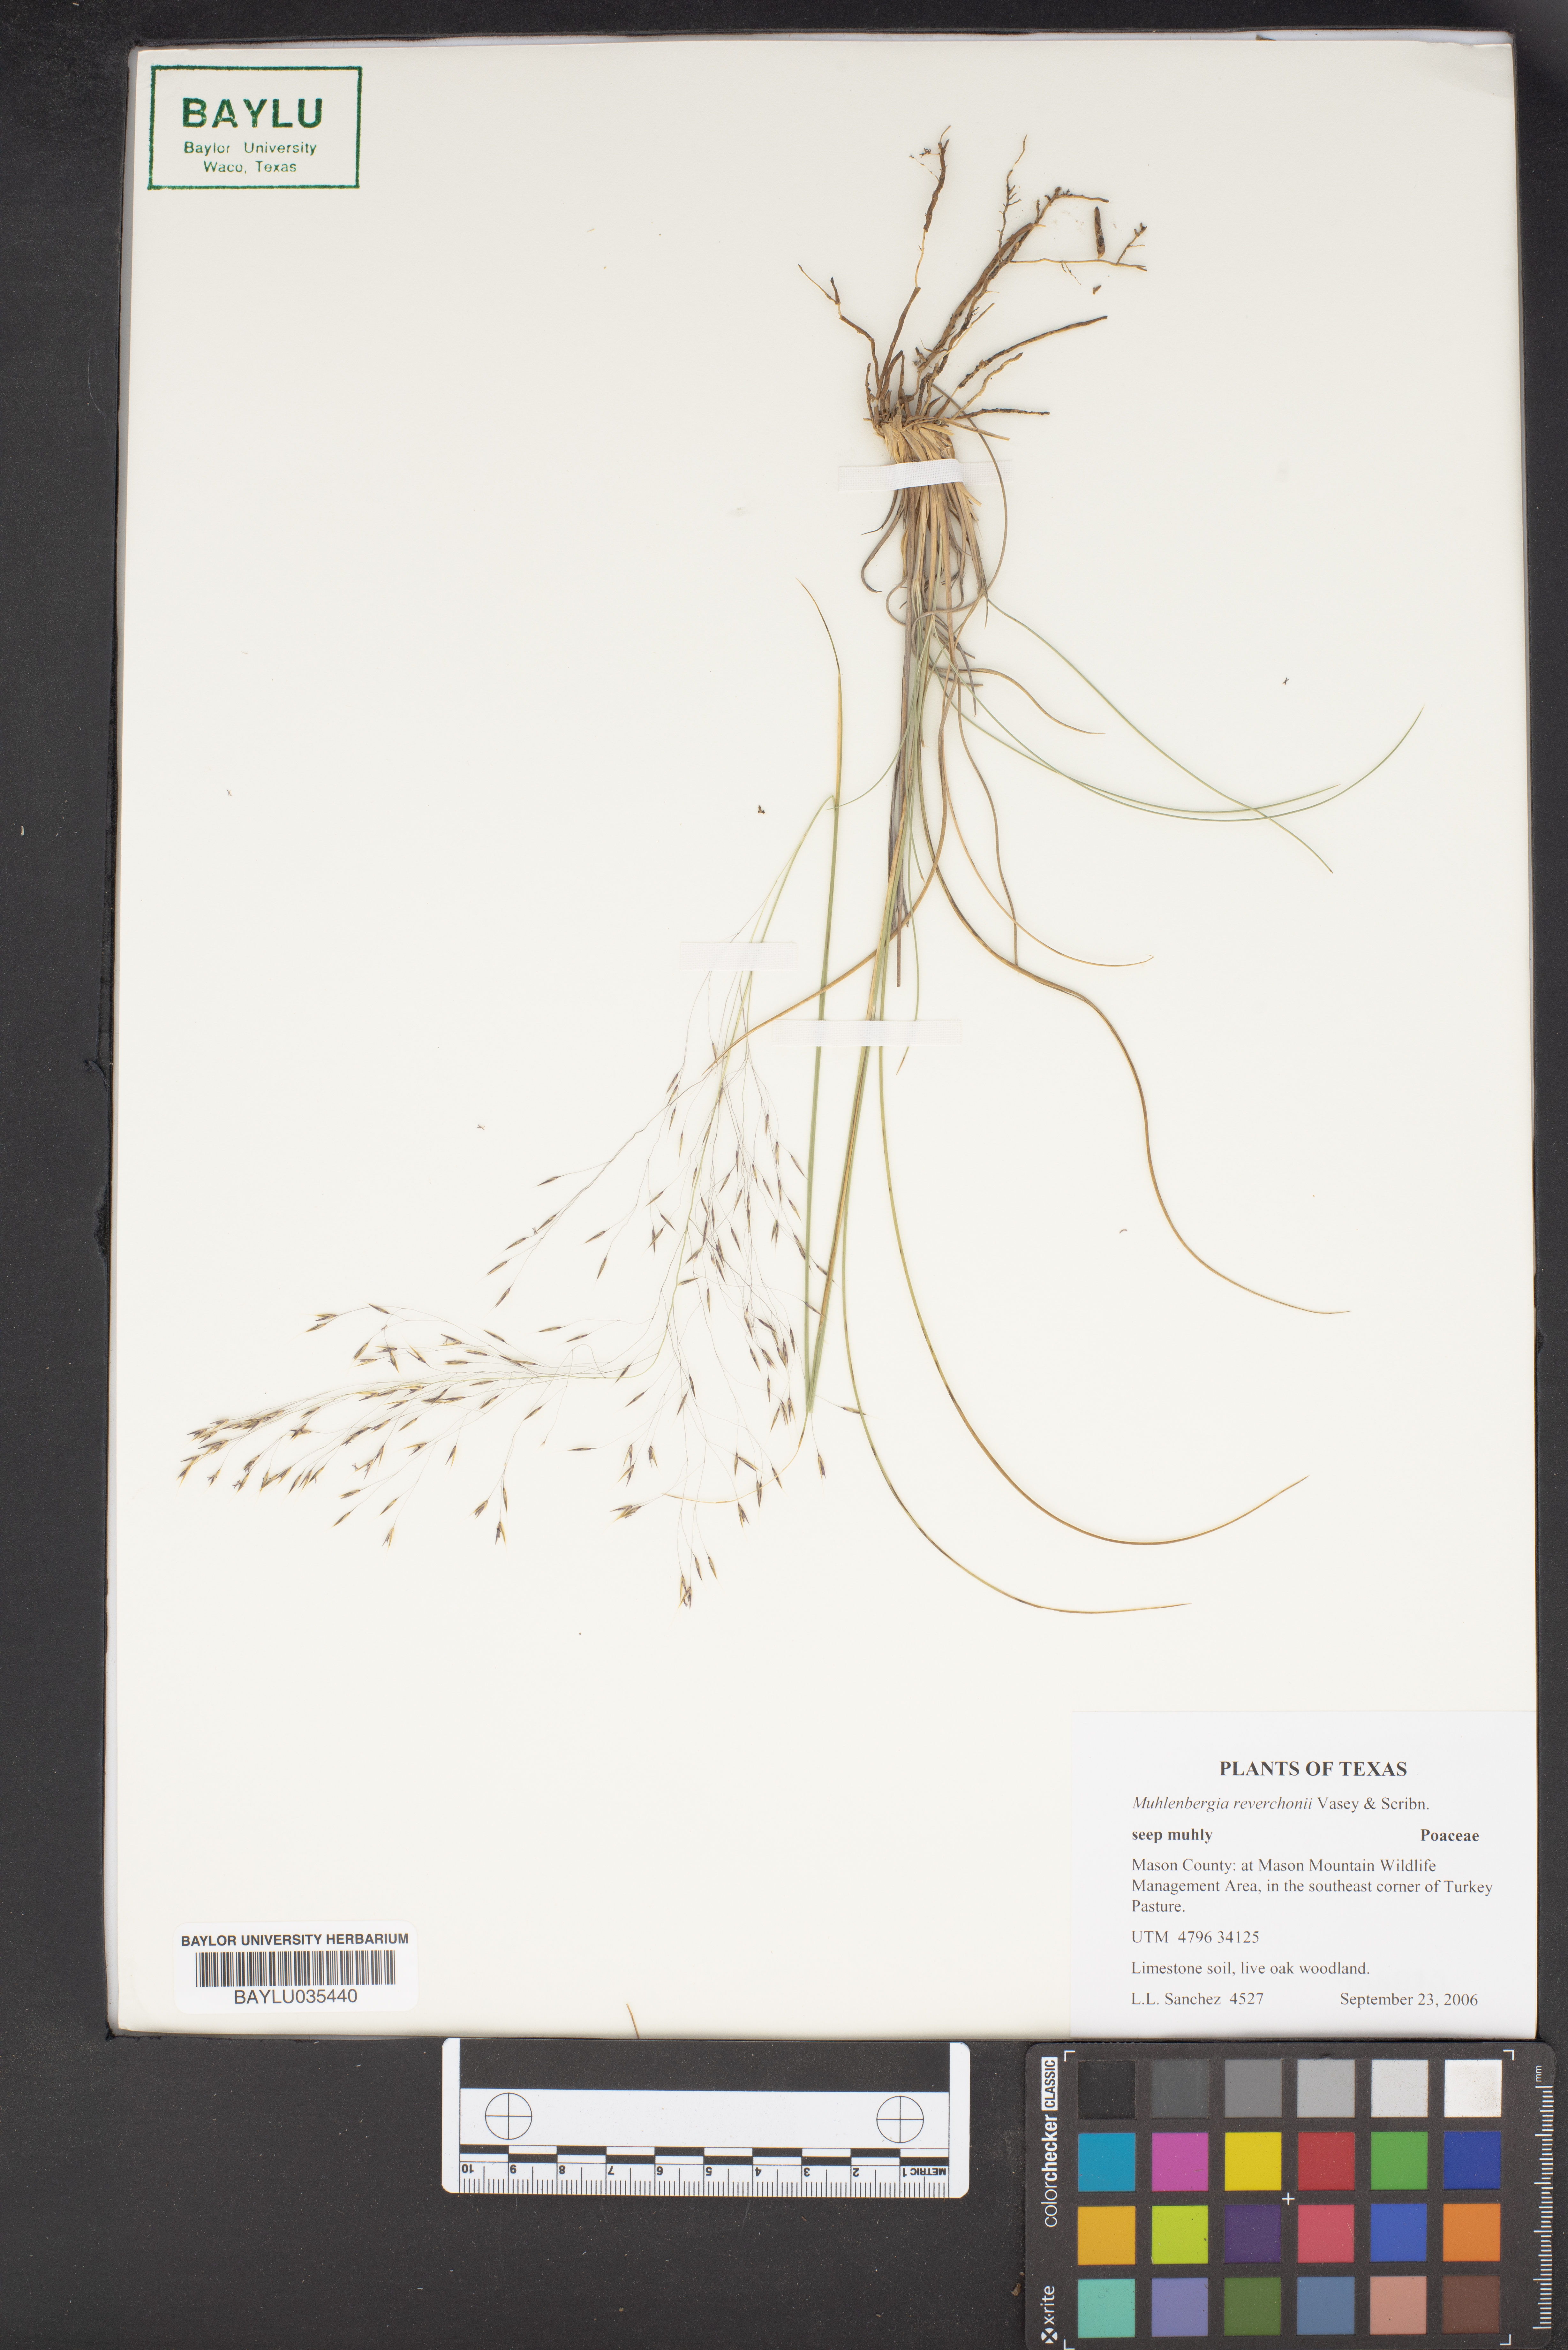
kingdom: Plantae
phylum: Tracheophyta
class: Liliopsida
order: Poales
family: Poaceae
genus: Muhlenbergia
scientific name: Muhlenbergia reverchonii
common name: Seep muhly
